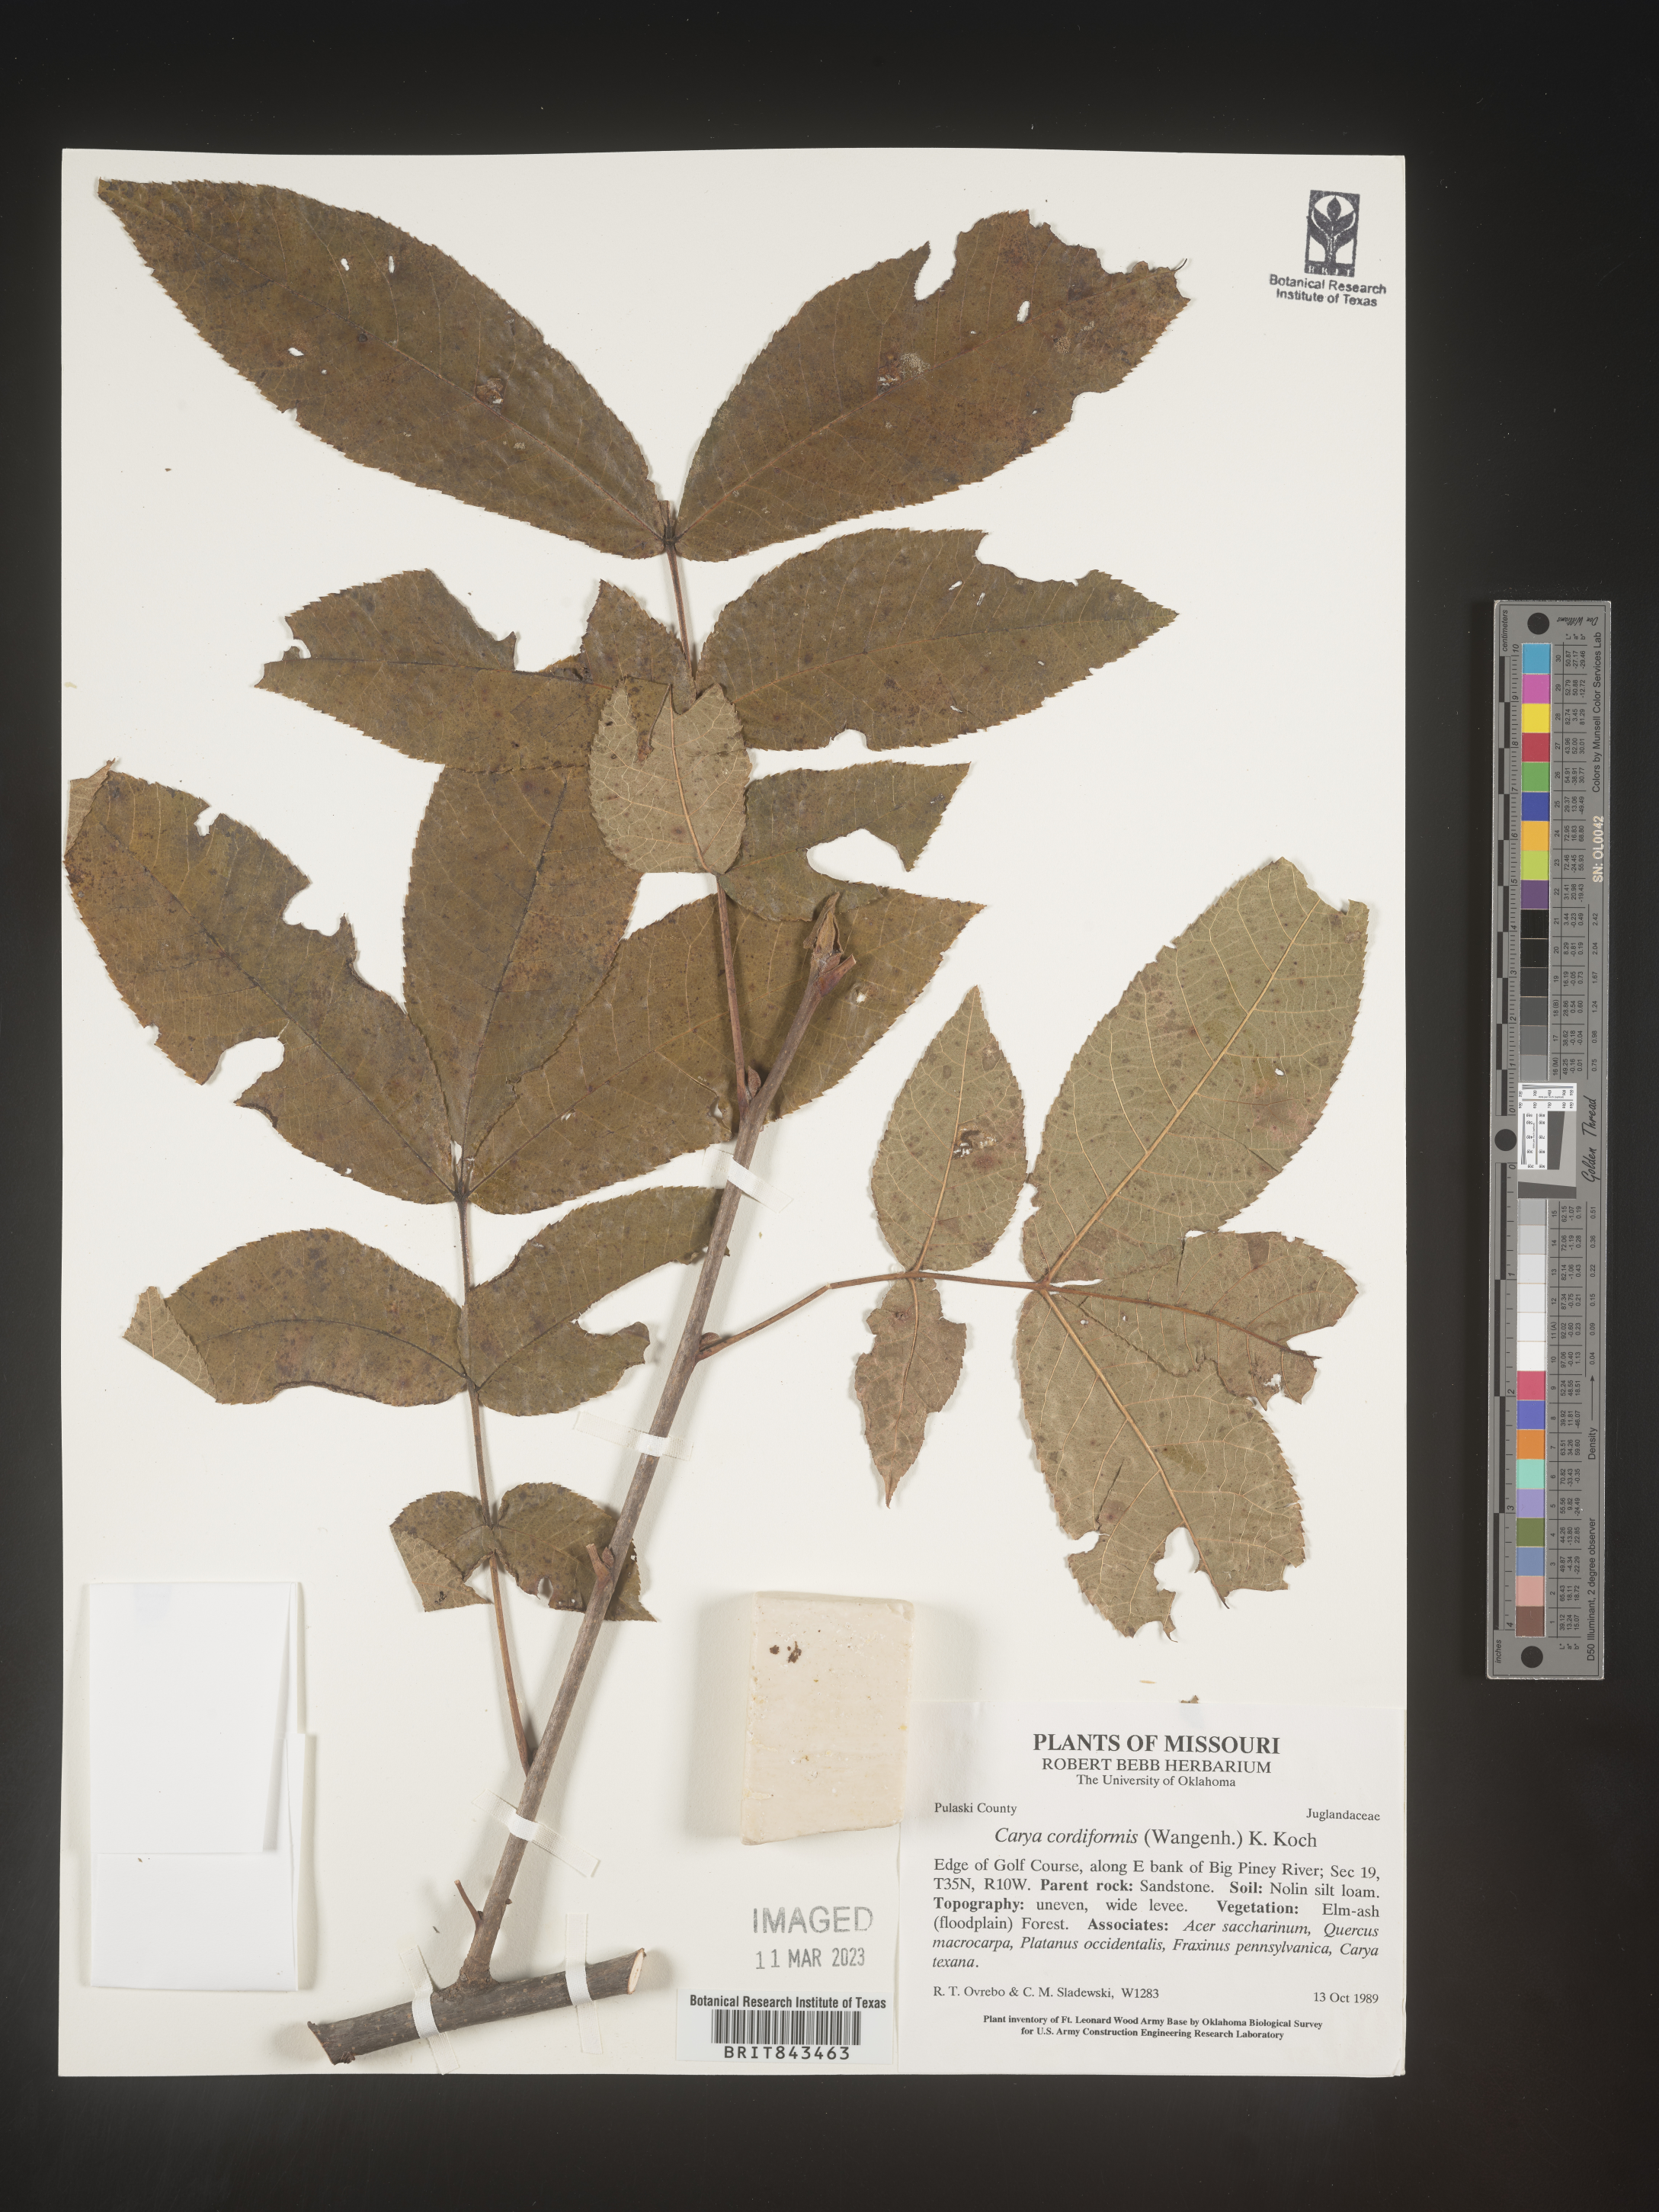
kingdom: Plantae
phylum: Tracheophyta
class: Magnoliopsida
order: Fagales
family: Juglandaceae
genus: Carya
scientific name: Carya cordiformis
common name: Bitternut hickory
